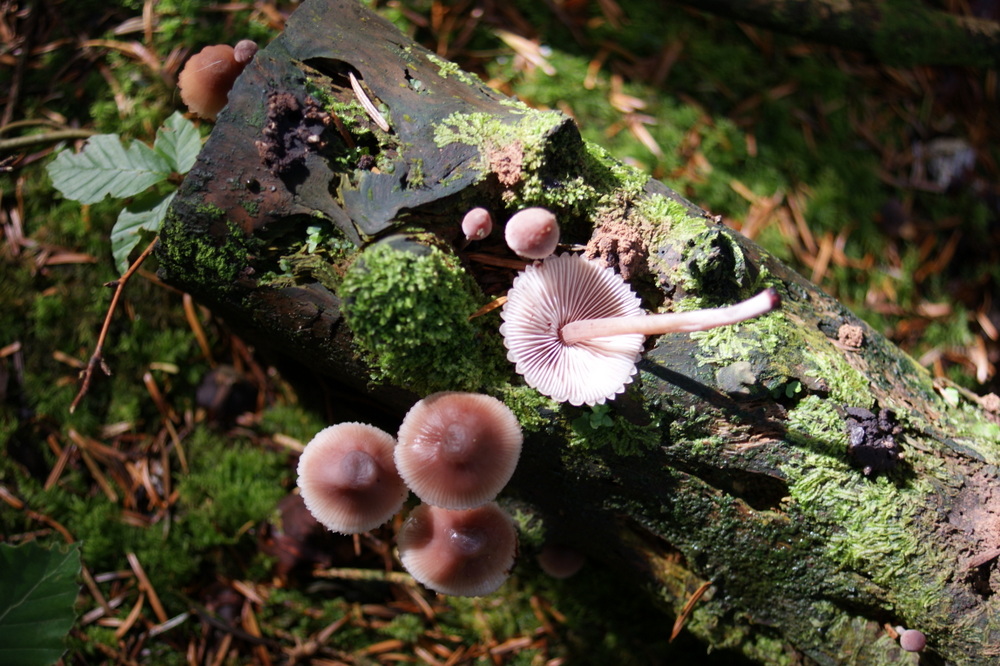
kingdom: Fungi
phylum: Basidiomycota
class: Agaricomycetes
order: Agaricales
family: Mycenaceae
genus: Mycena
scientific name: Mycena haematopus
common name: blødende huesvamp
